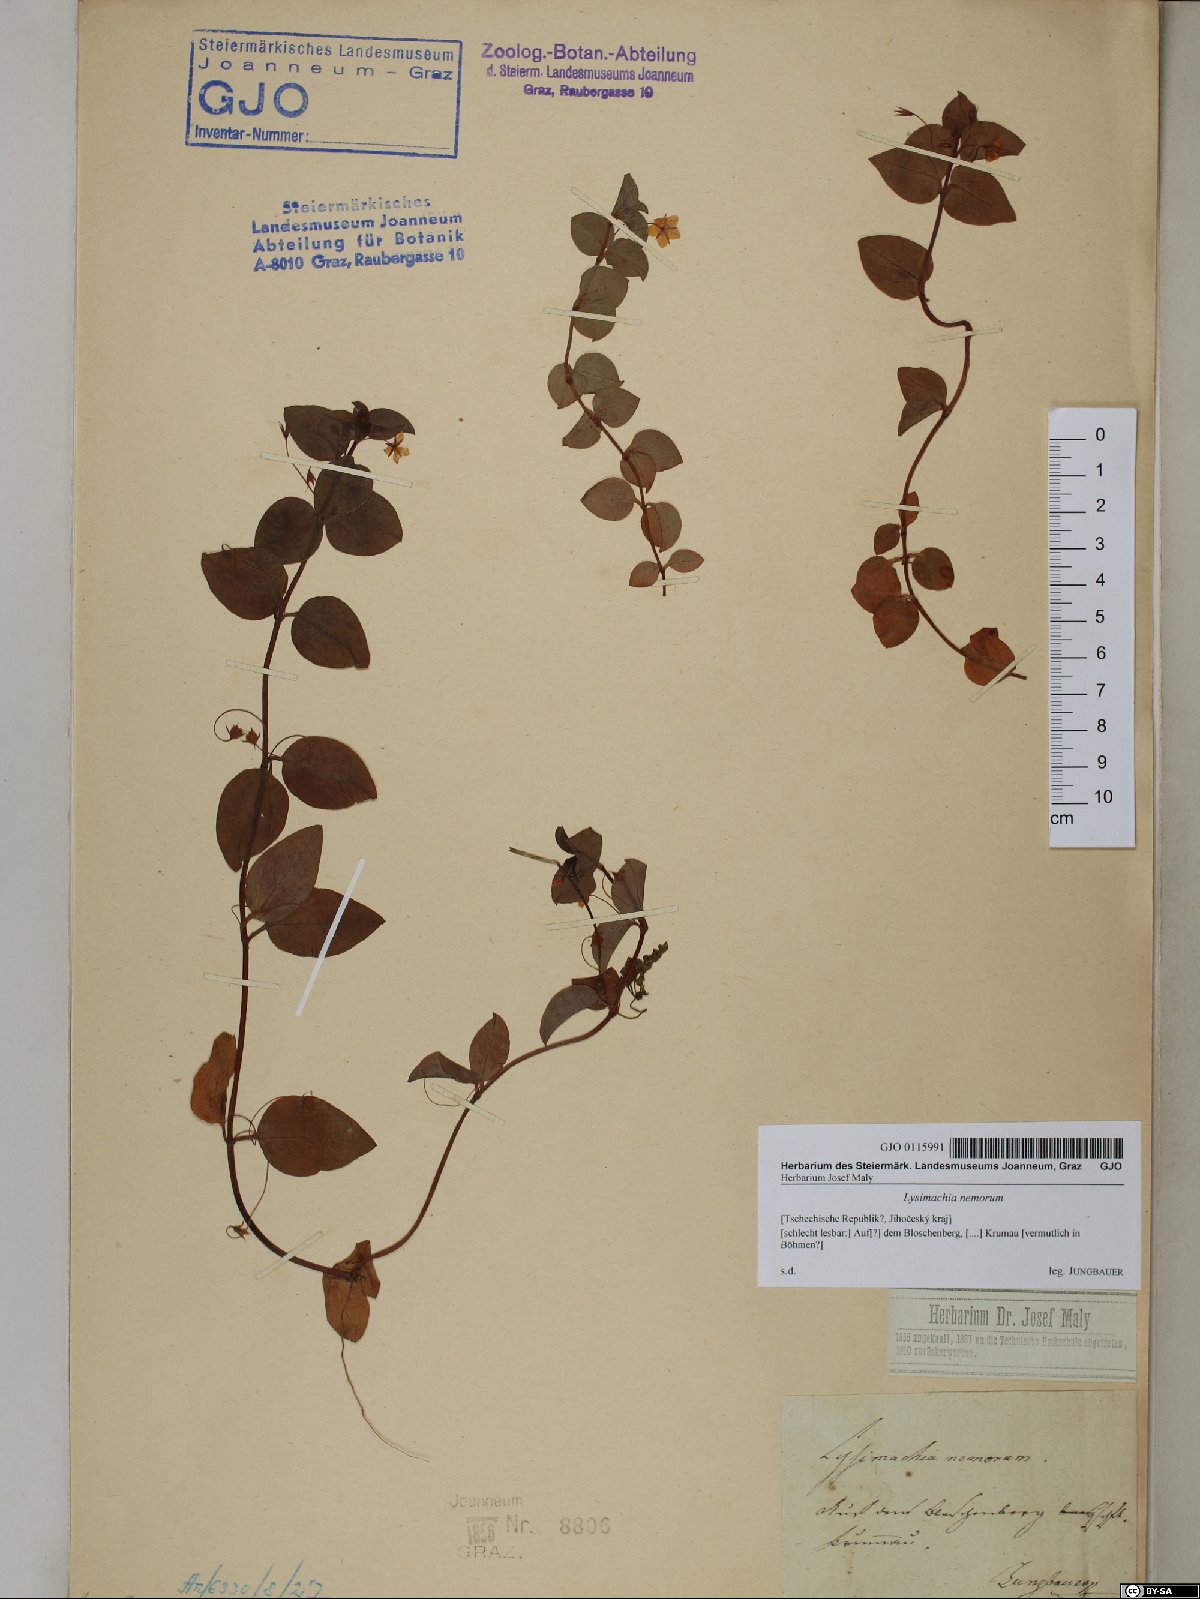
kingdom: Plantae
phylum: Tracheophyta
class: Magnoliopsida
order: Ericales
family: Primulaceae
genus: Lysimachia
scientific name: Lysimachia nemorum
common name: Yellow pimpernel
